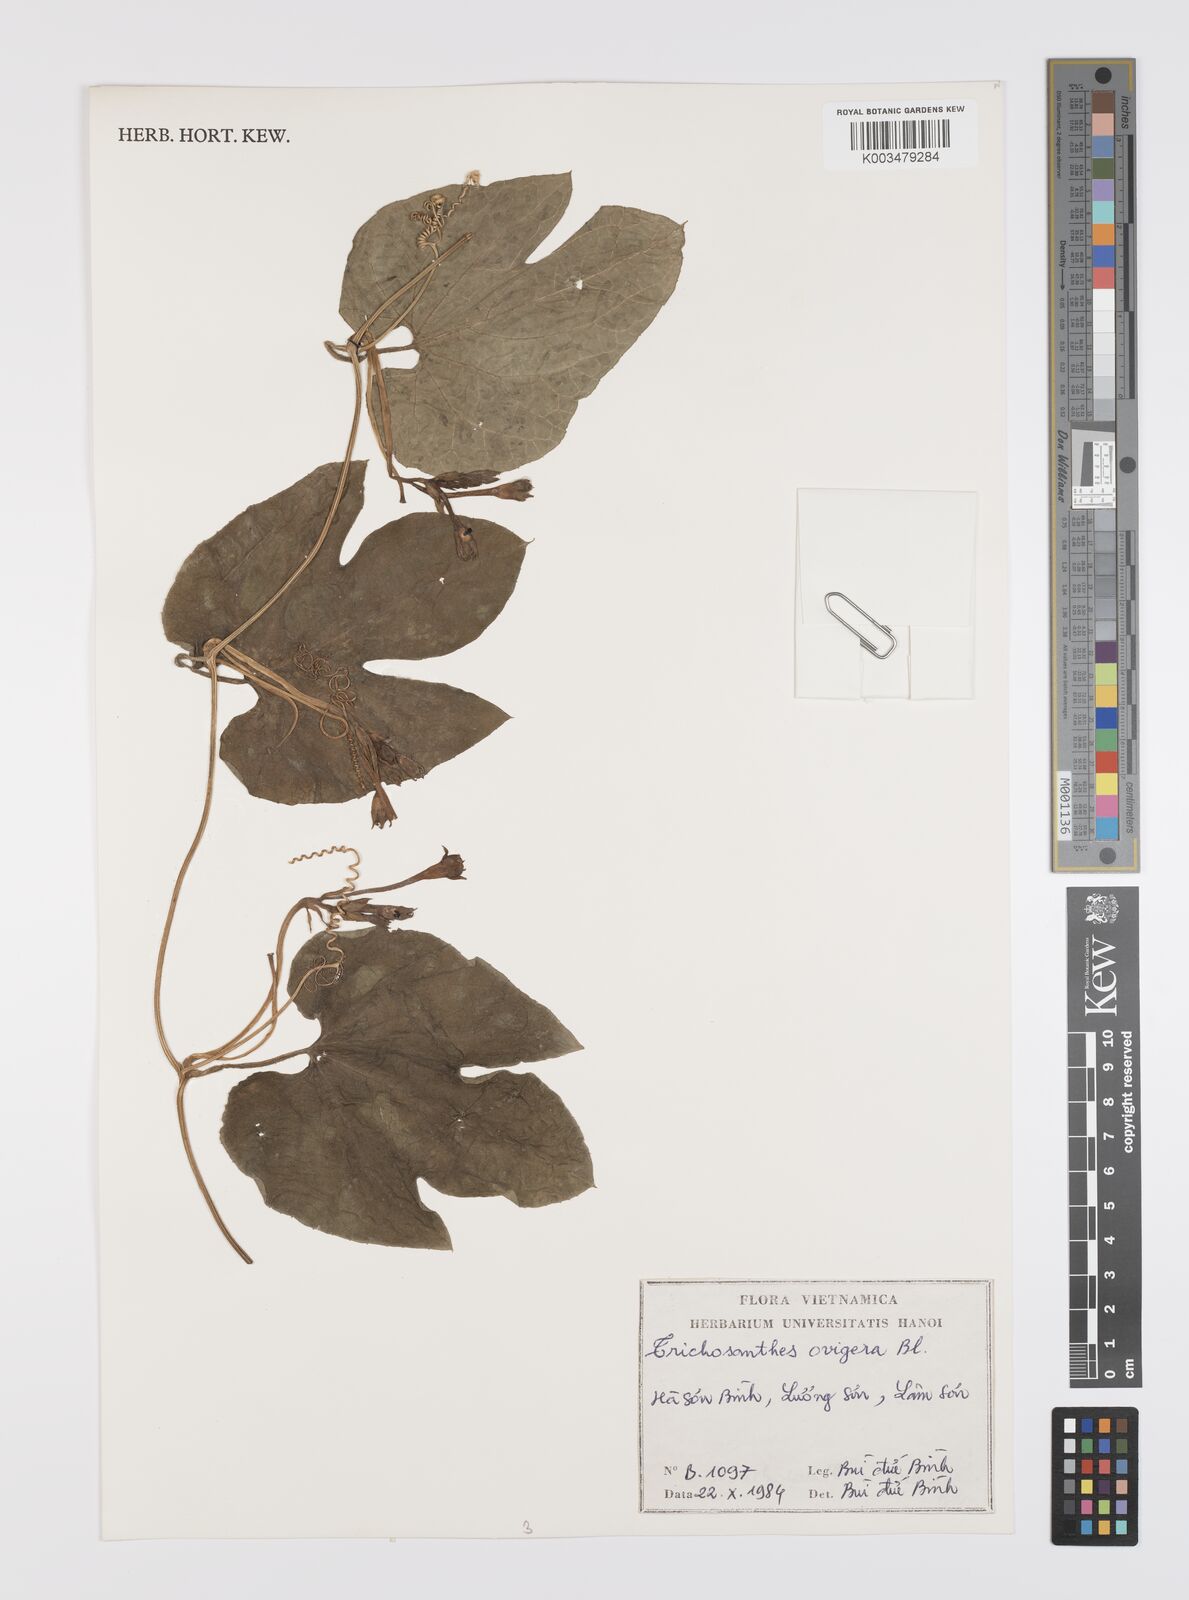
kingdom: Plantae
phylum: Tracheophyta
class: Magnoliopsida
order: Cucurbitales
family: Cucurbitaceae
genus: Trichosanthes
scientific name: Trichosanthes ovigera
